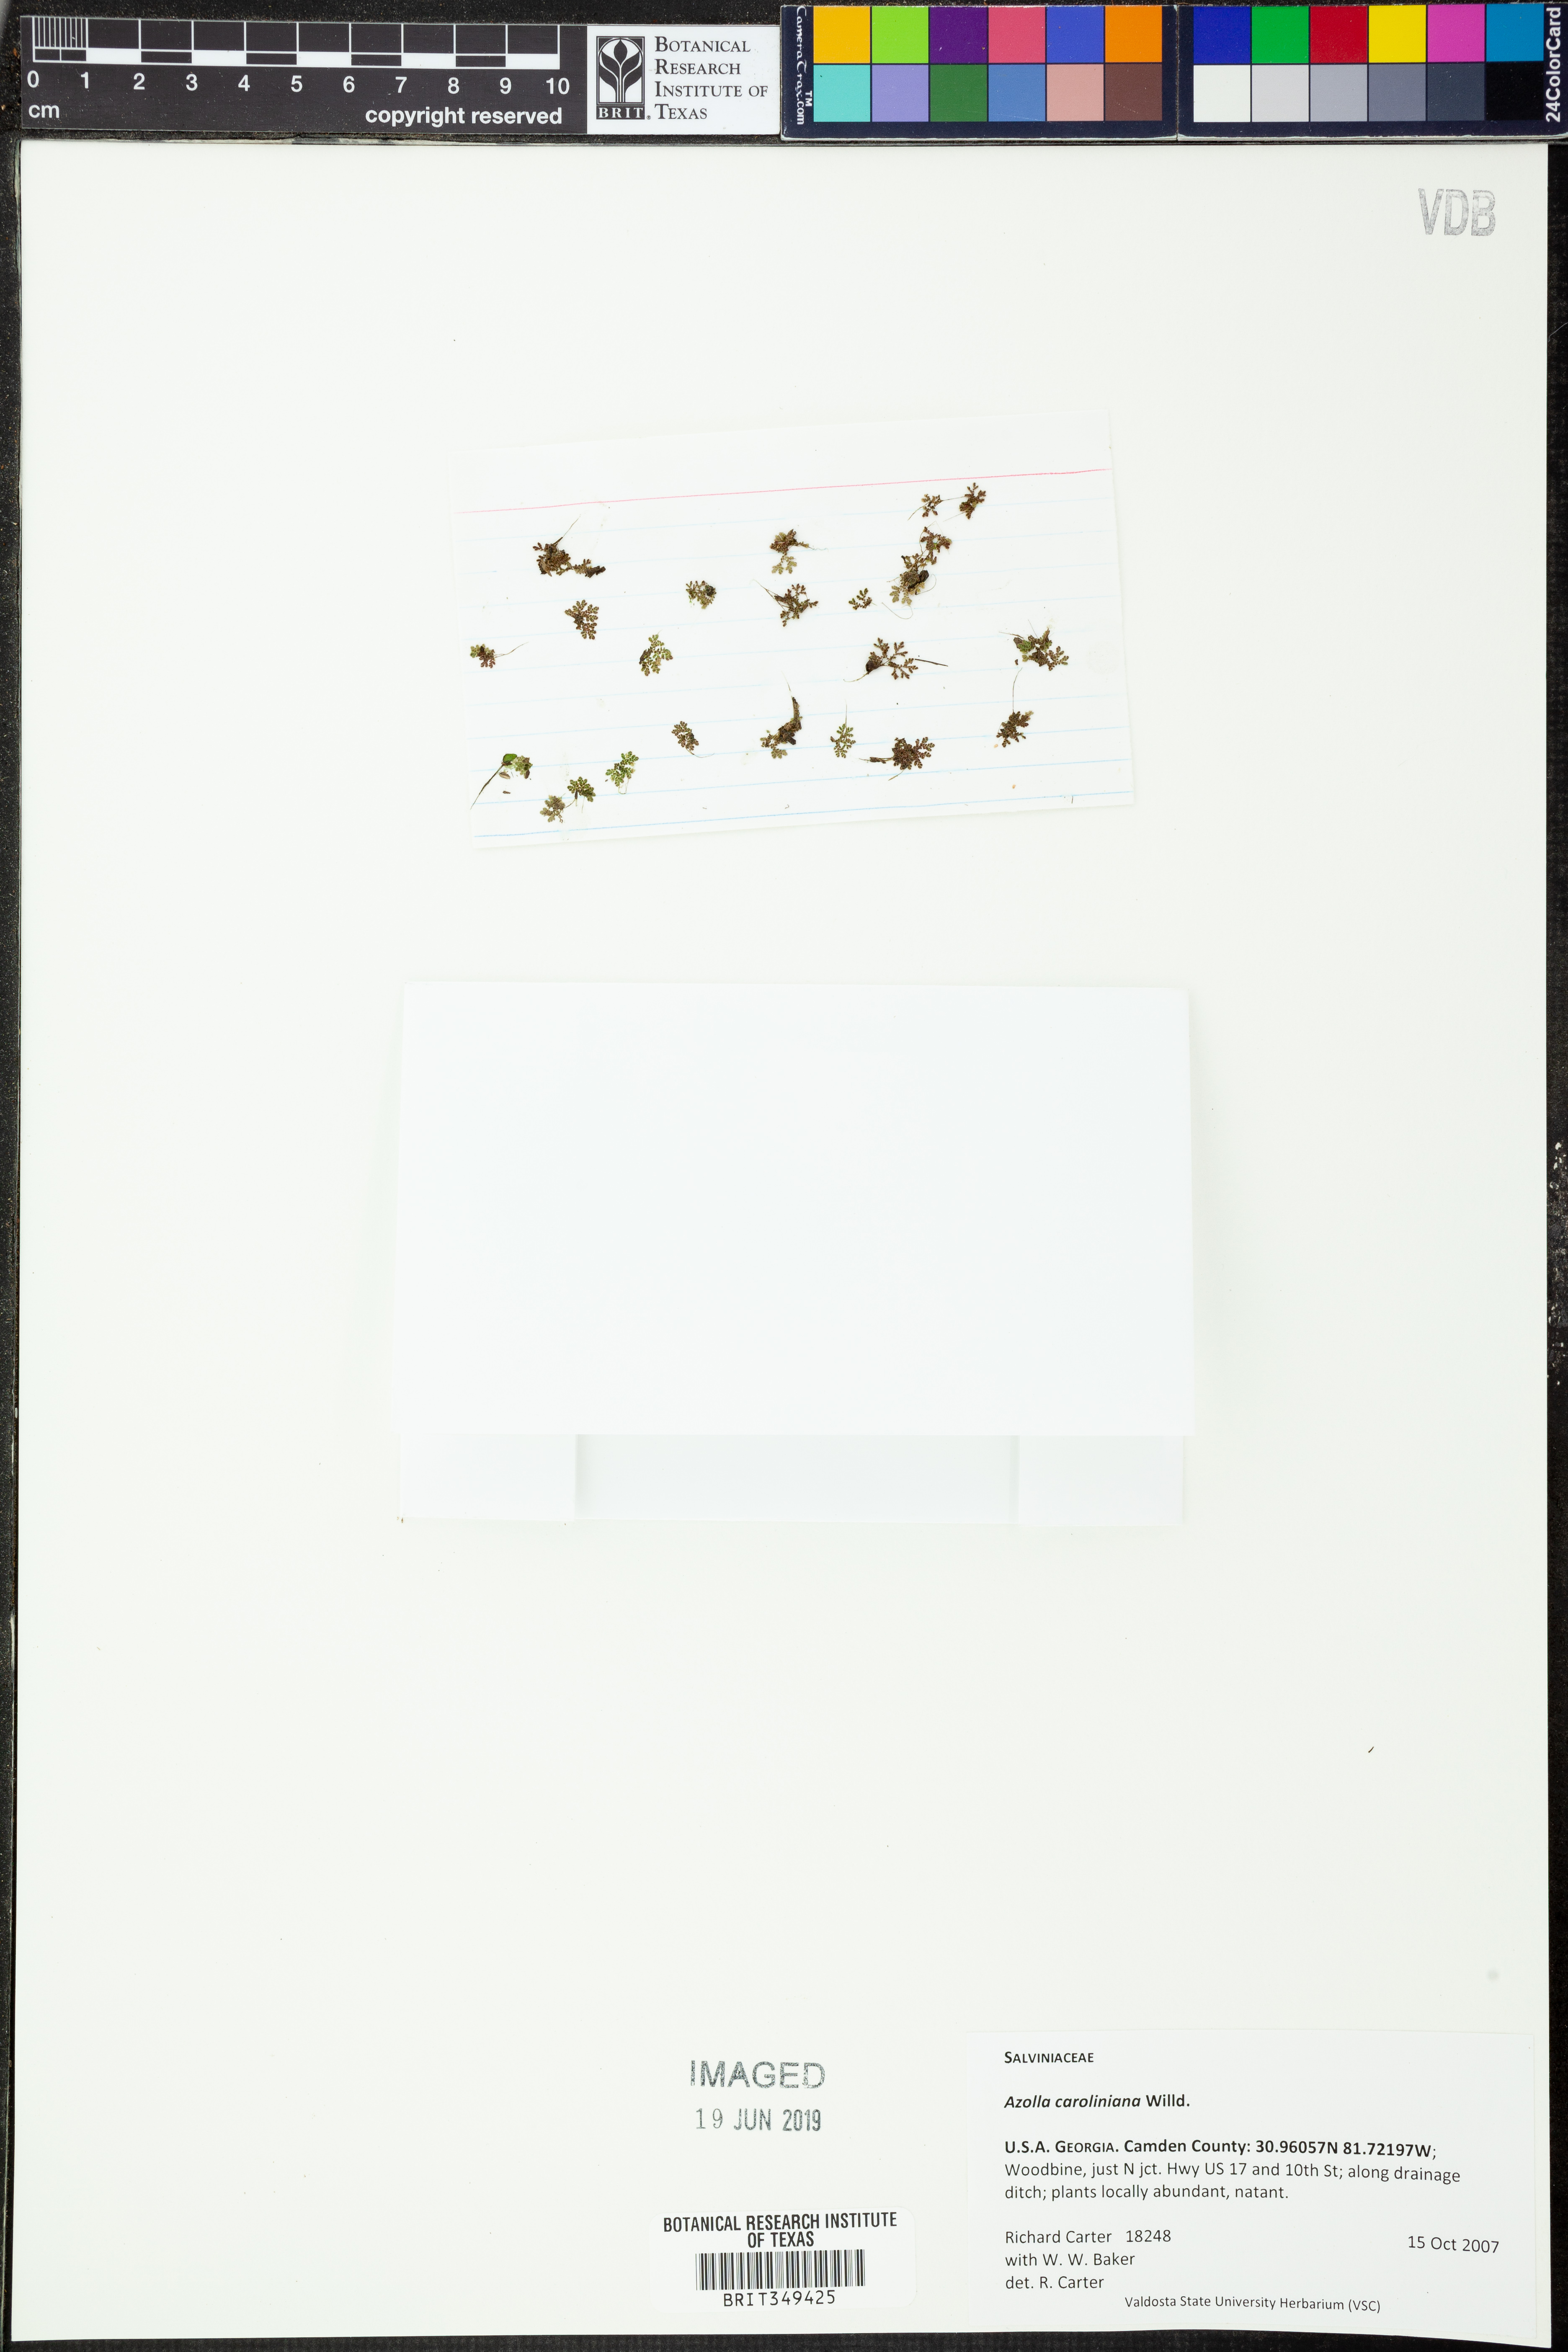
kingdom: Plantae
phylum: Tracheophyta
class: Polypodiopsida
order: Salviniales
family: Salviniaceae
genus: Azolla
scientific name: Azolla caroliniana
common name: Carolina mosquitofern
